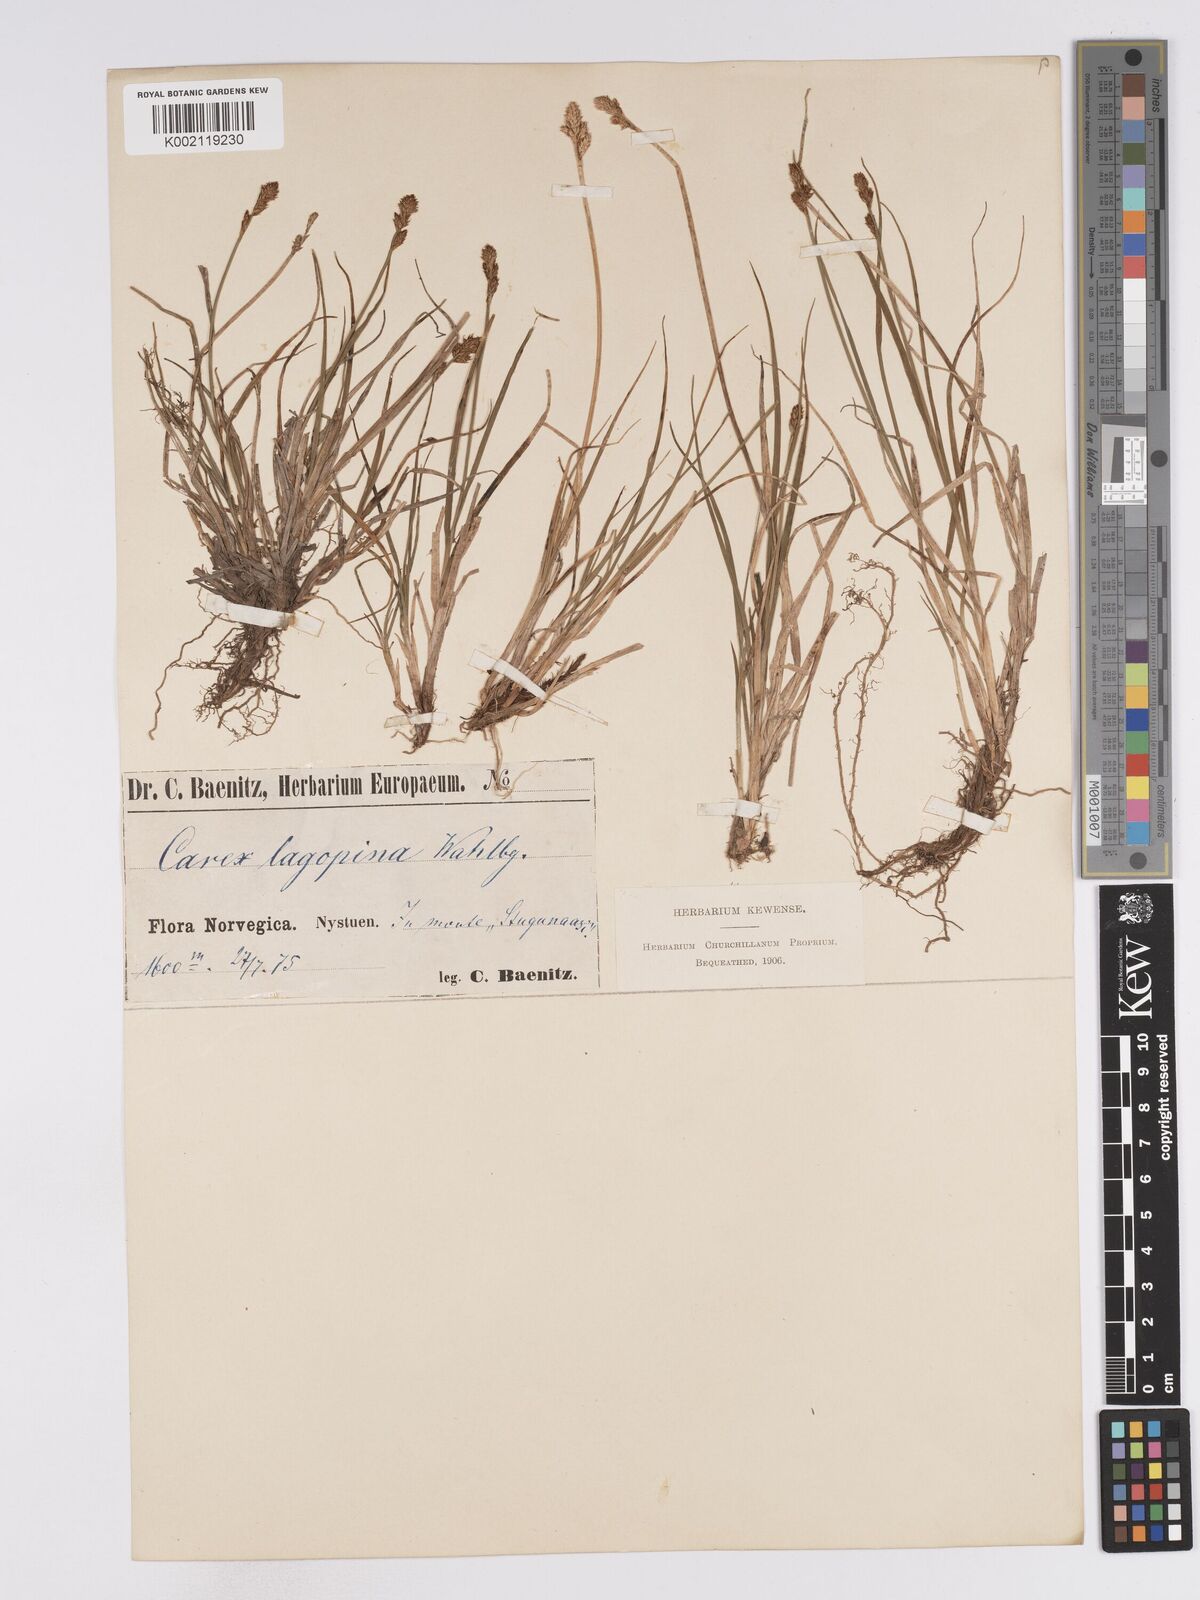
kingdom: Plantae
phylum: Tracheophyta
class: Liliopsida
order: Poales
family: Cyperaceae
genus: Carex
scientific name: Carex lachenalii
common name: Hare's-foot sedge
